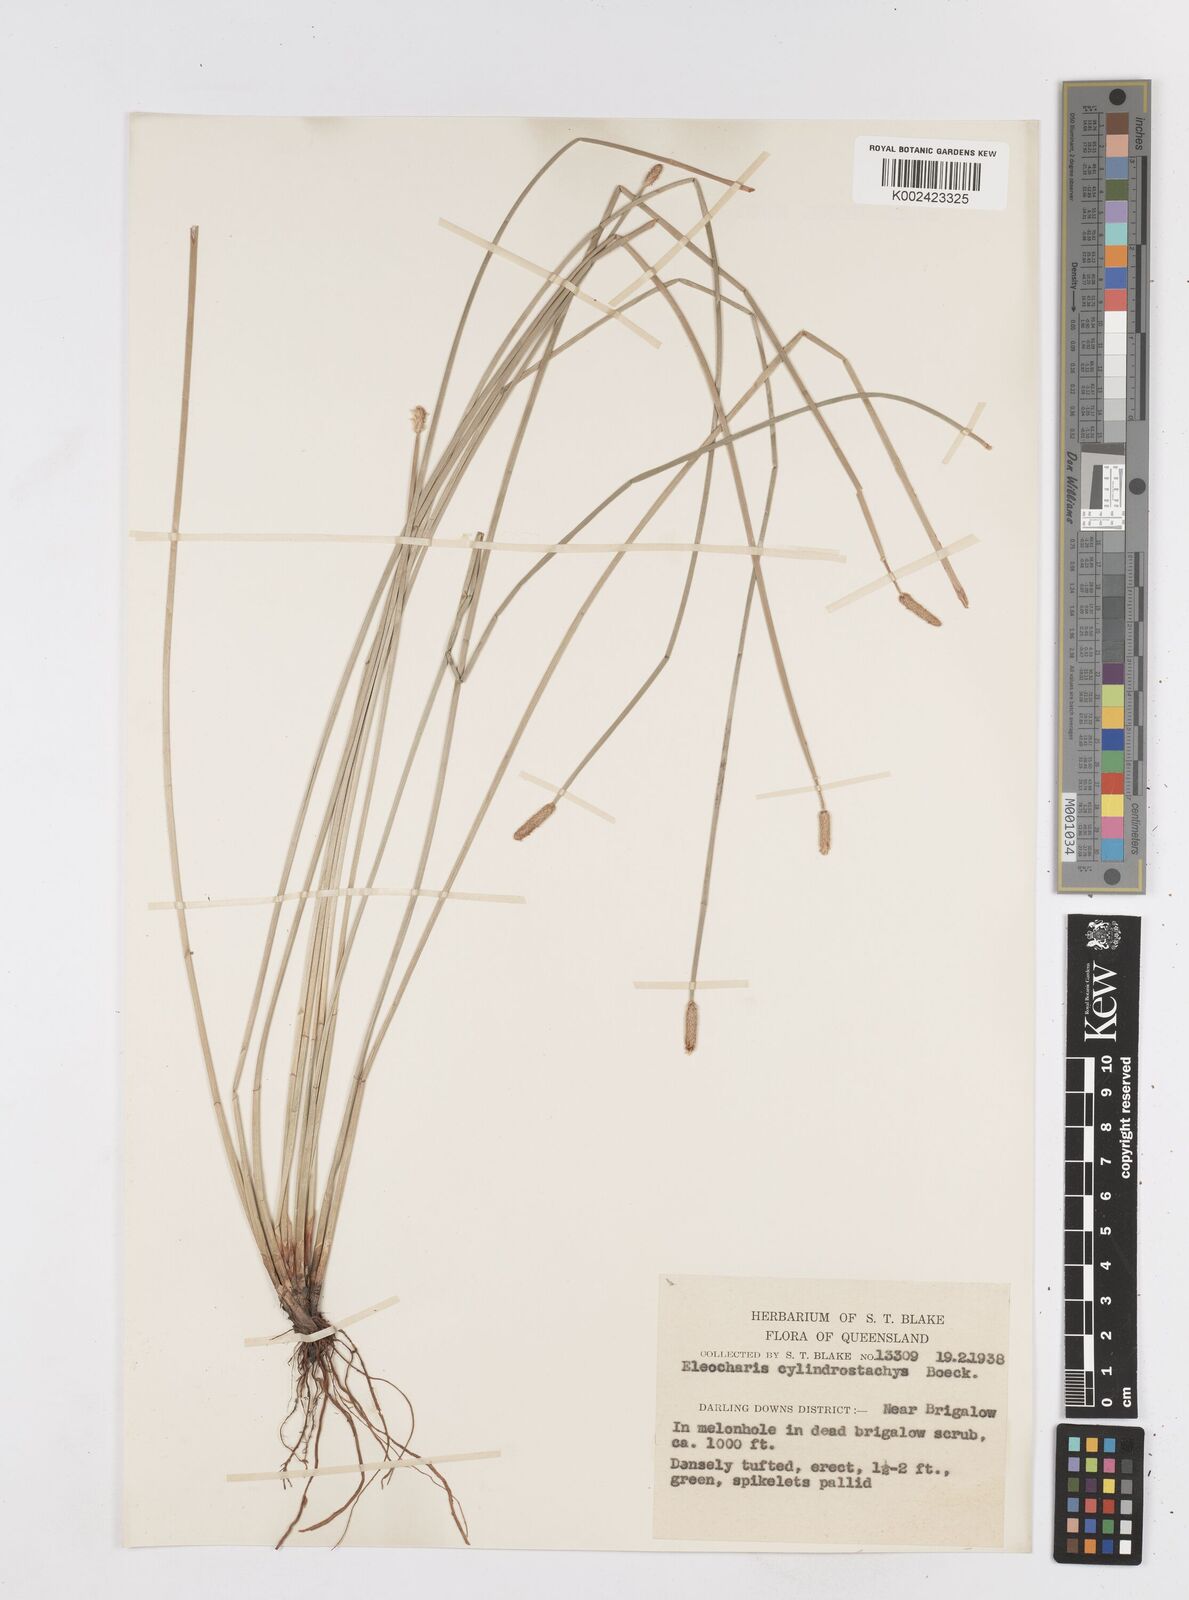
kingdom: Plantae
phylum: Tracheophyta
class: Liliopsida
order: Poales
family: Cyperaceae
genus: Eleocharis
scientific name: Eleocharis cylindrostachys
